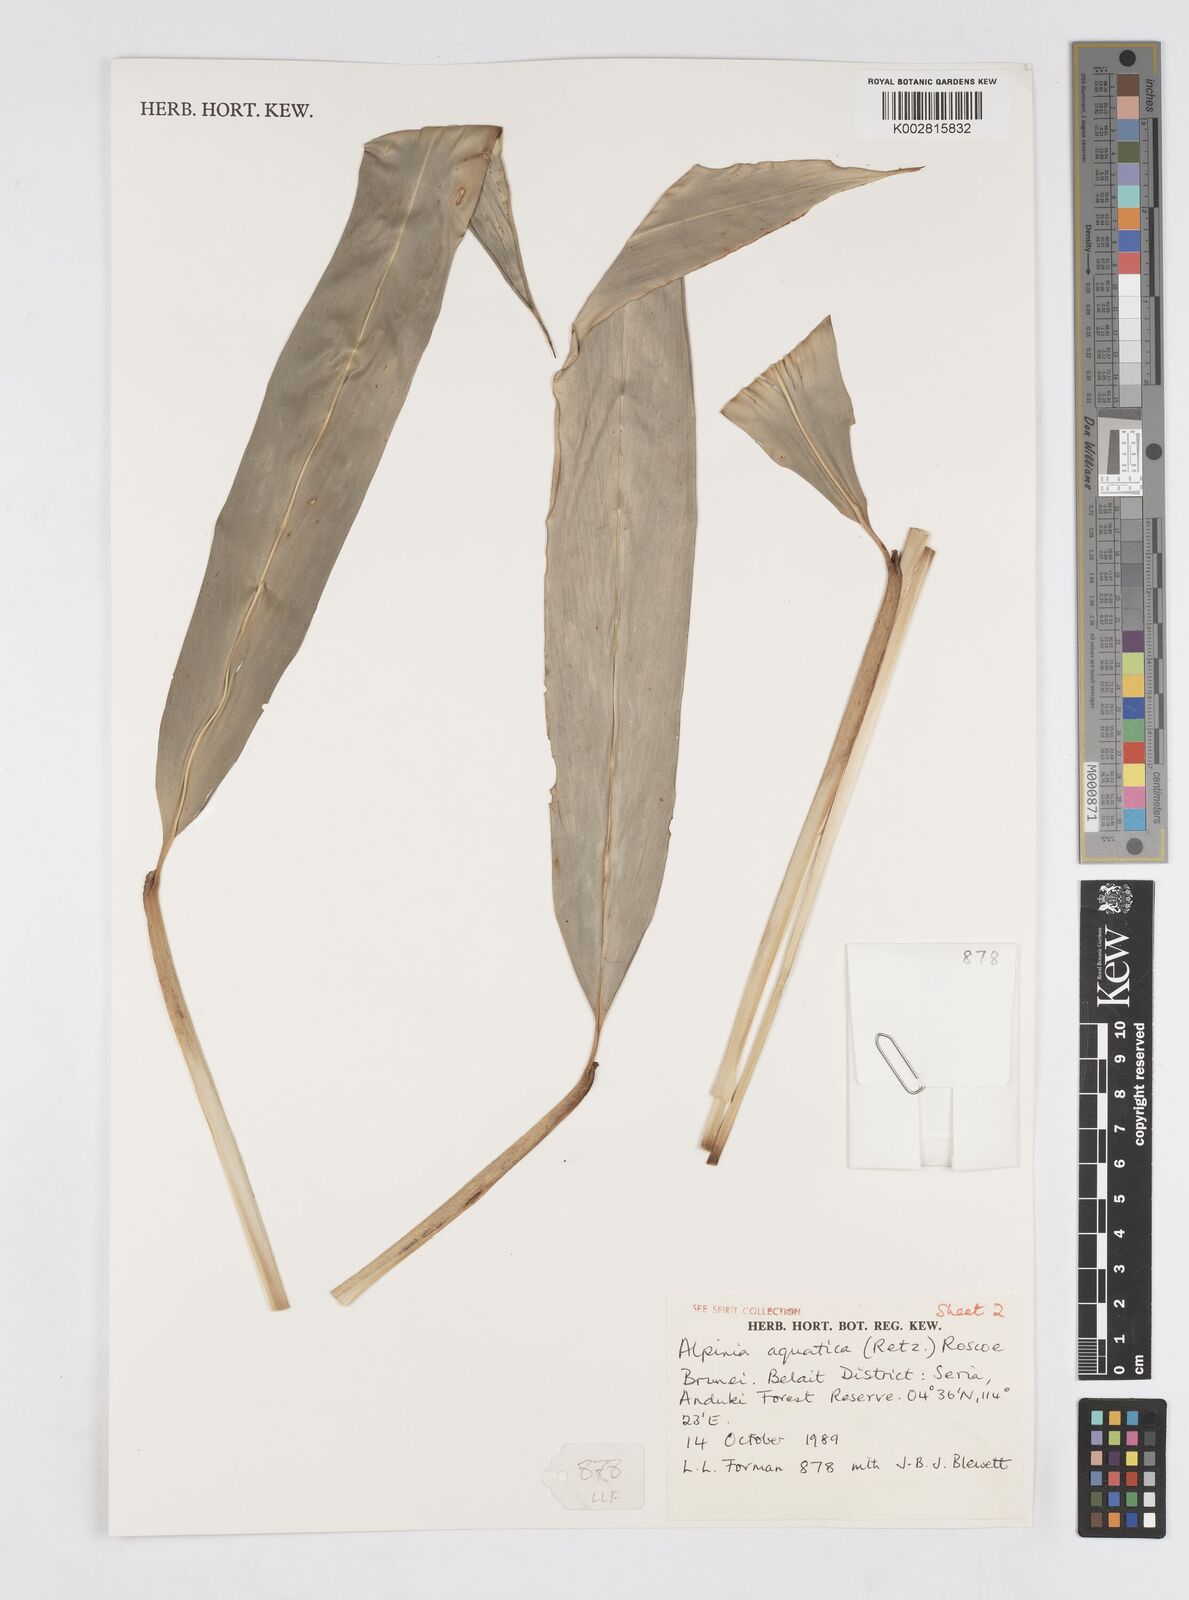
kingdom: Plantae
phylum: Tracheophyta
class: Liliopsida
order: Zingiberales
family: Zingiberaceae
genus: Alpinia
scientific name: Alpinia aquatica
